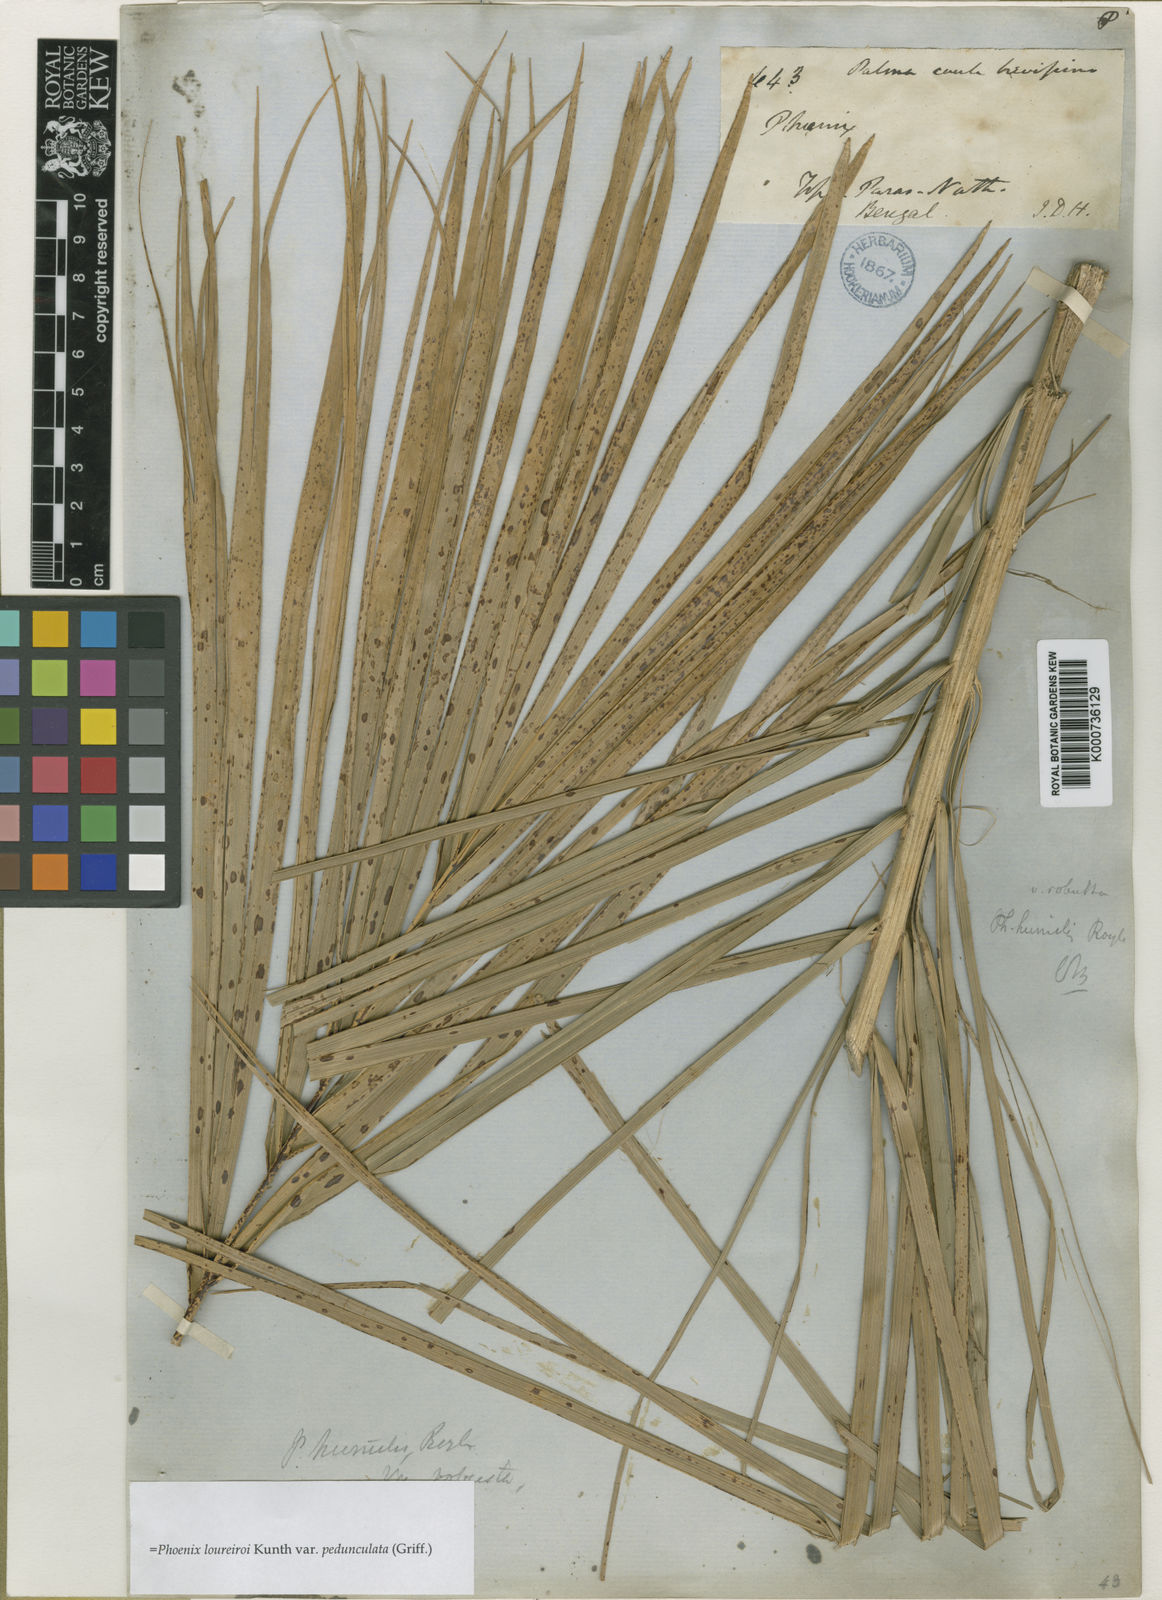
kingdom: Plantae
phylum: Tracheophyta
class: Liliopsida
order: Arecales
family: Arecaceae
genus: Phoenix
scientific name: Phoenix loureiroi
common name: Loureiro's palm
